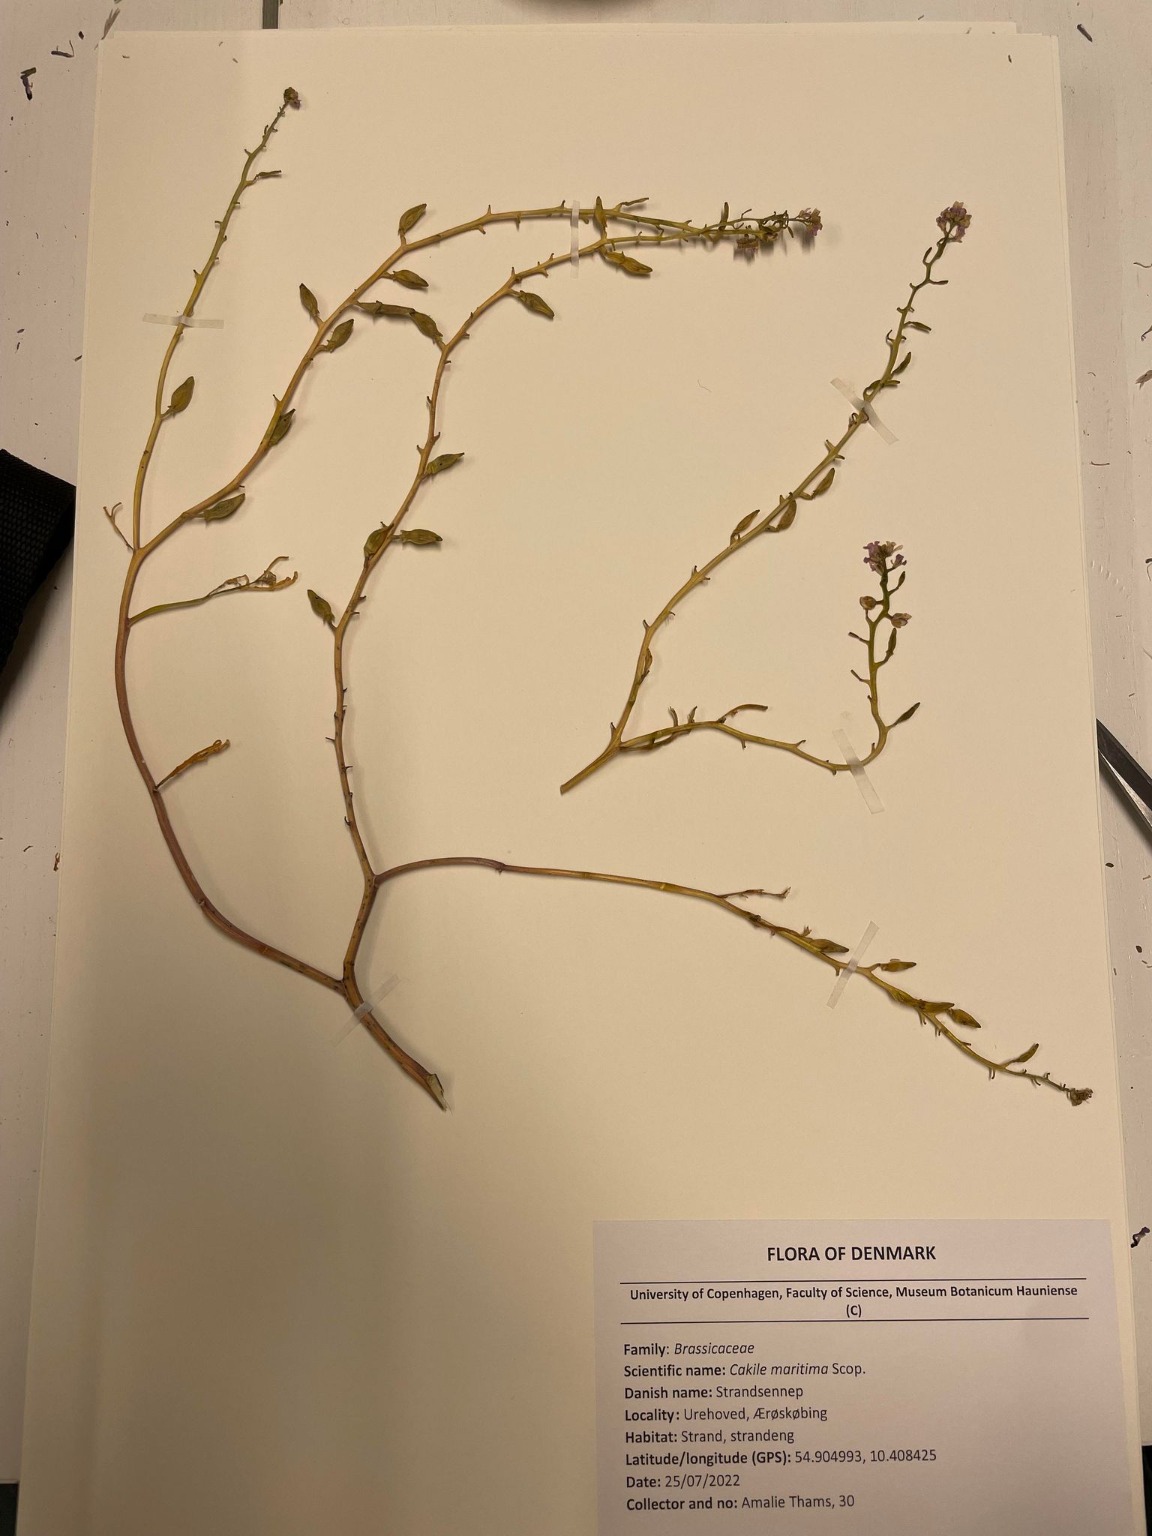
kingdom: Plantae
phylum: Tracheophyta
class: Magnoliopsida
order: Brassicales
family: Brassicaceae
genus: Cakile
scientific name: Cakile maritima
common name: Strandsennep
